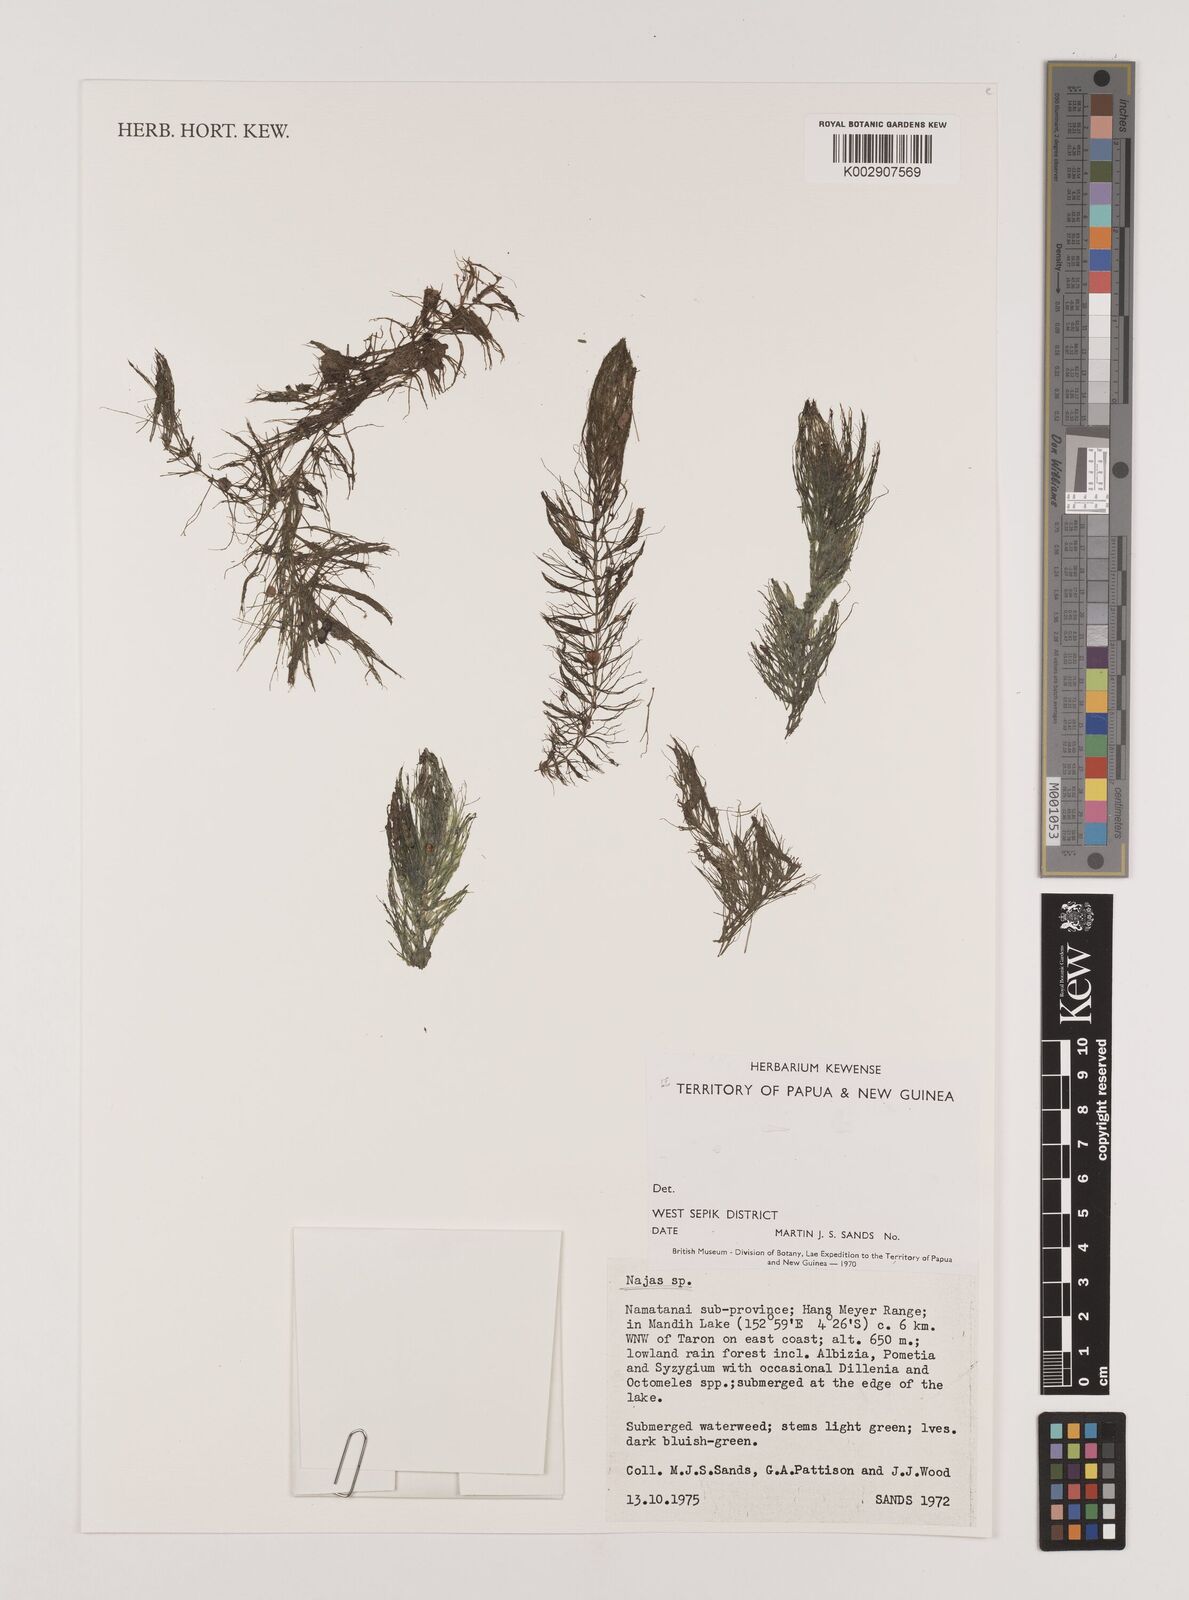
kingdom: Plantae
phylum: Tracheophyta
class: Liliopsida
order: Alismatales
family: Hydrocharitaceae
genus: Najas
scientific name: Najas
